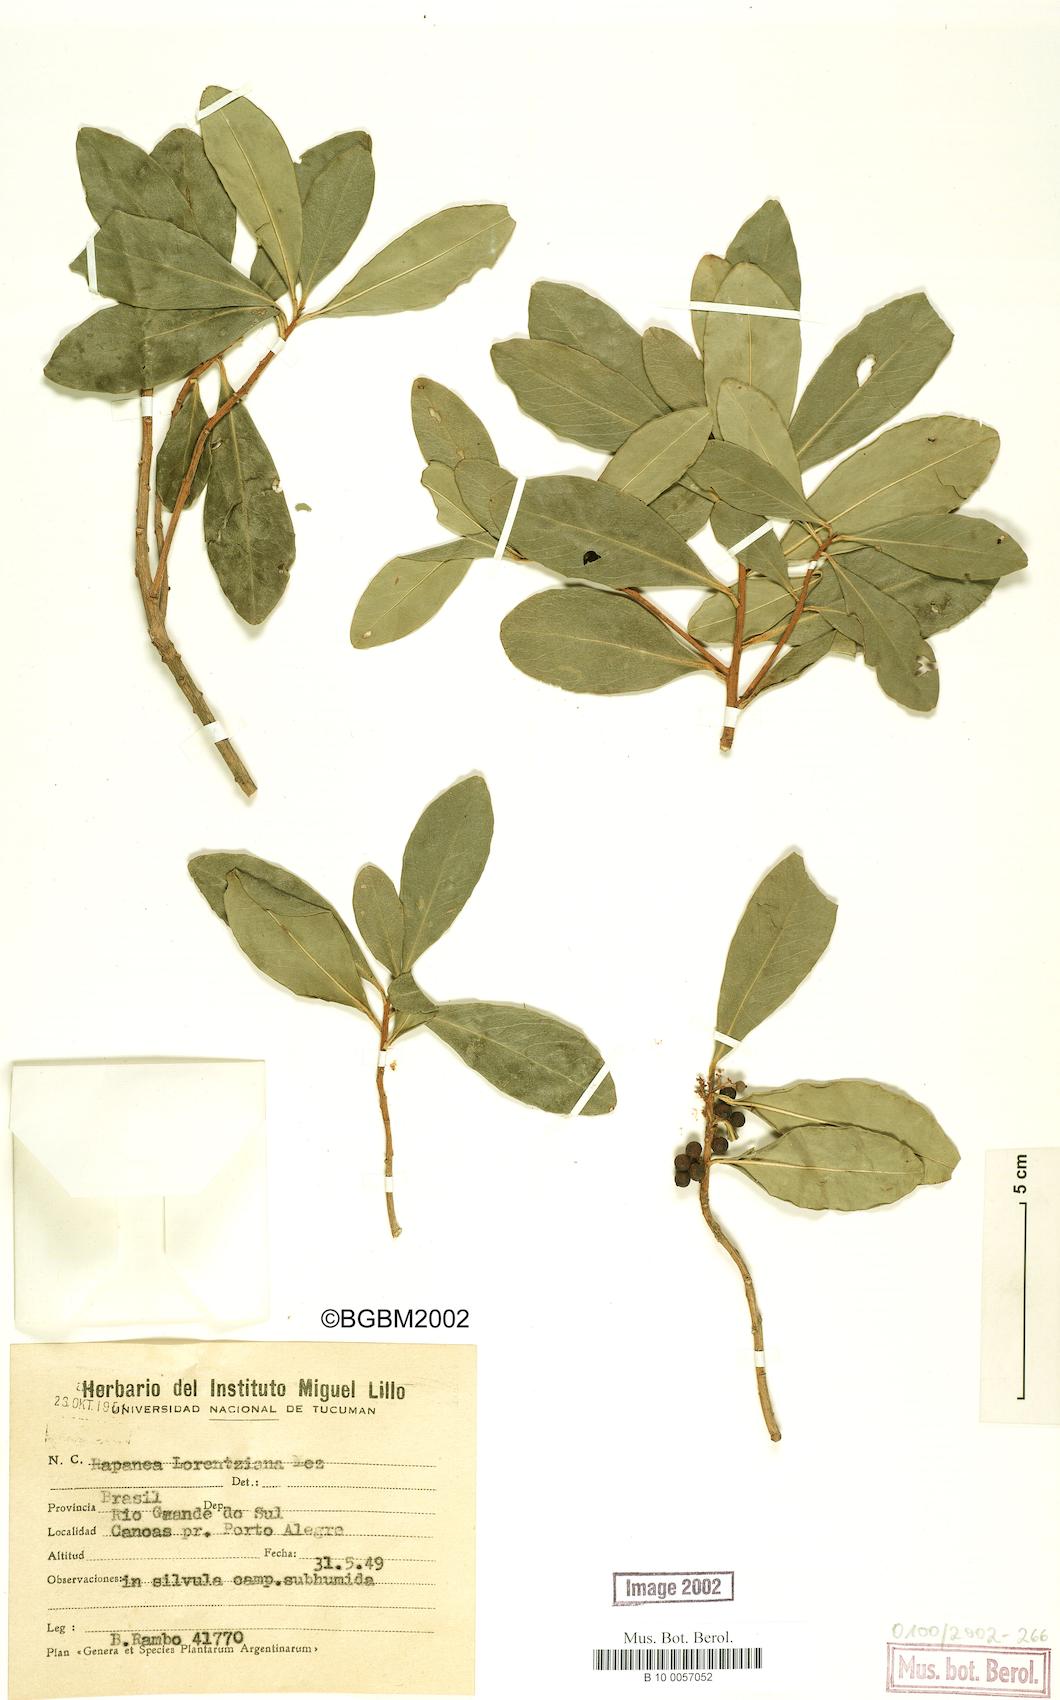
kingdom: Plantae
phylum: Tracheophyta
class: Magnoliopsida
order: Ericales
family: Primulaceae
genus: Myrsine
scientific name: Myrsine lorentziana
